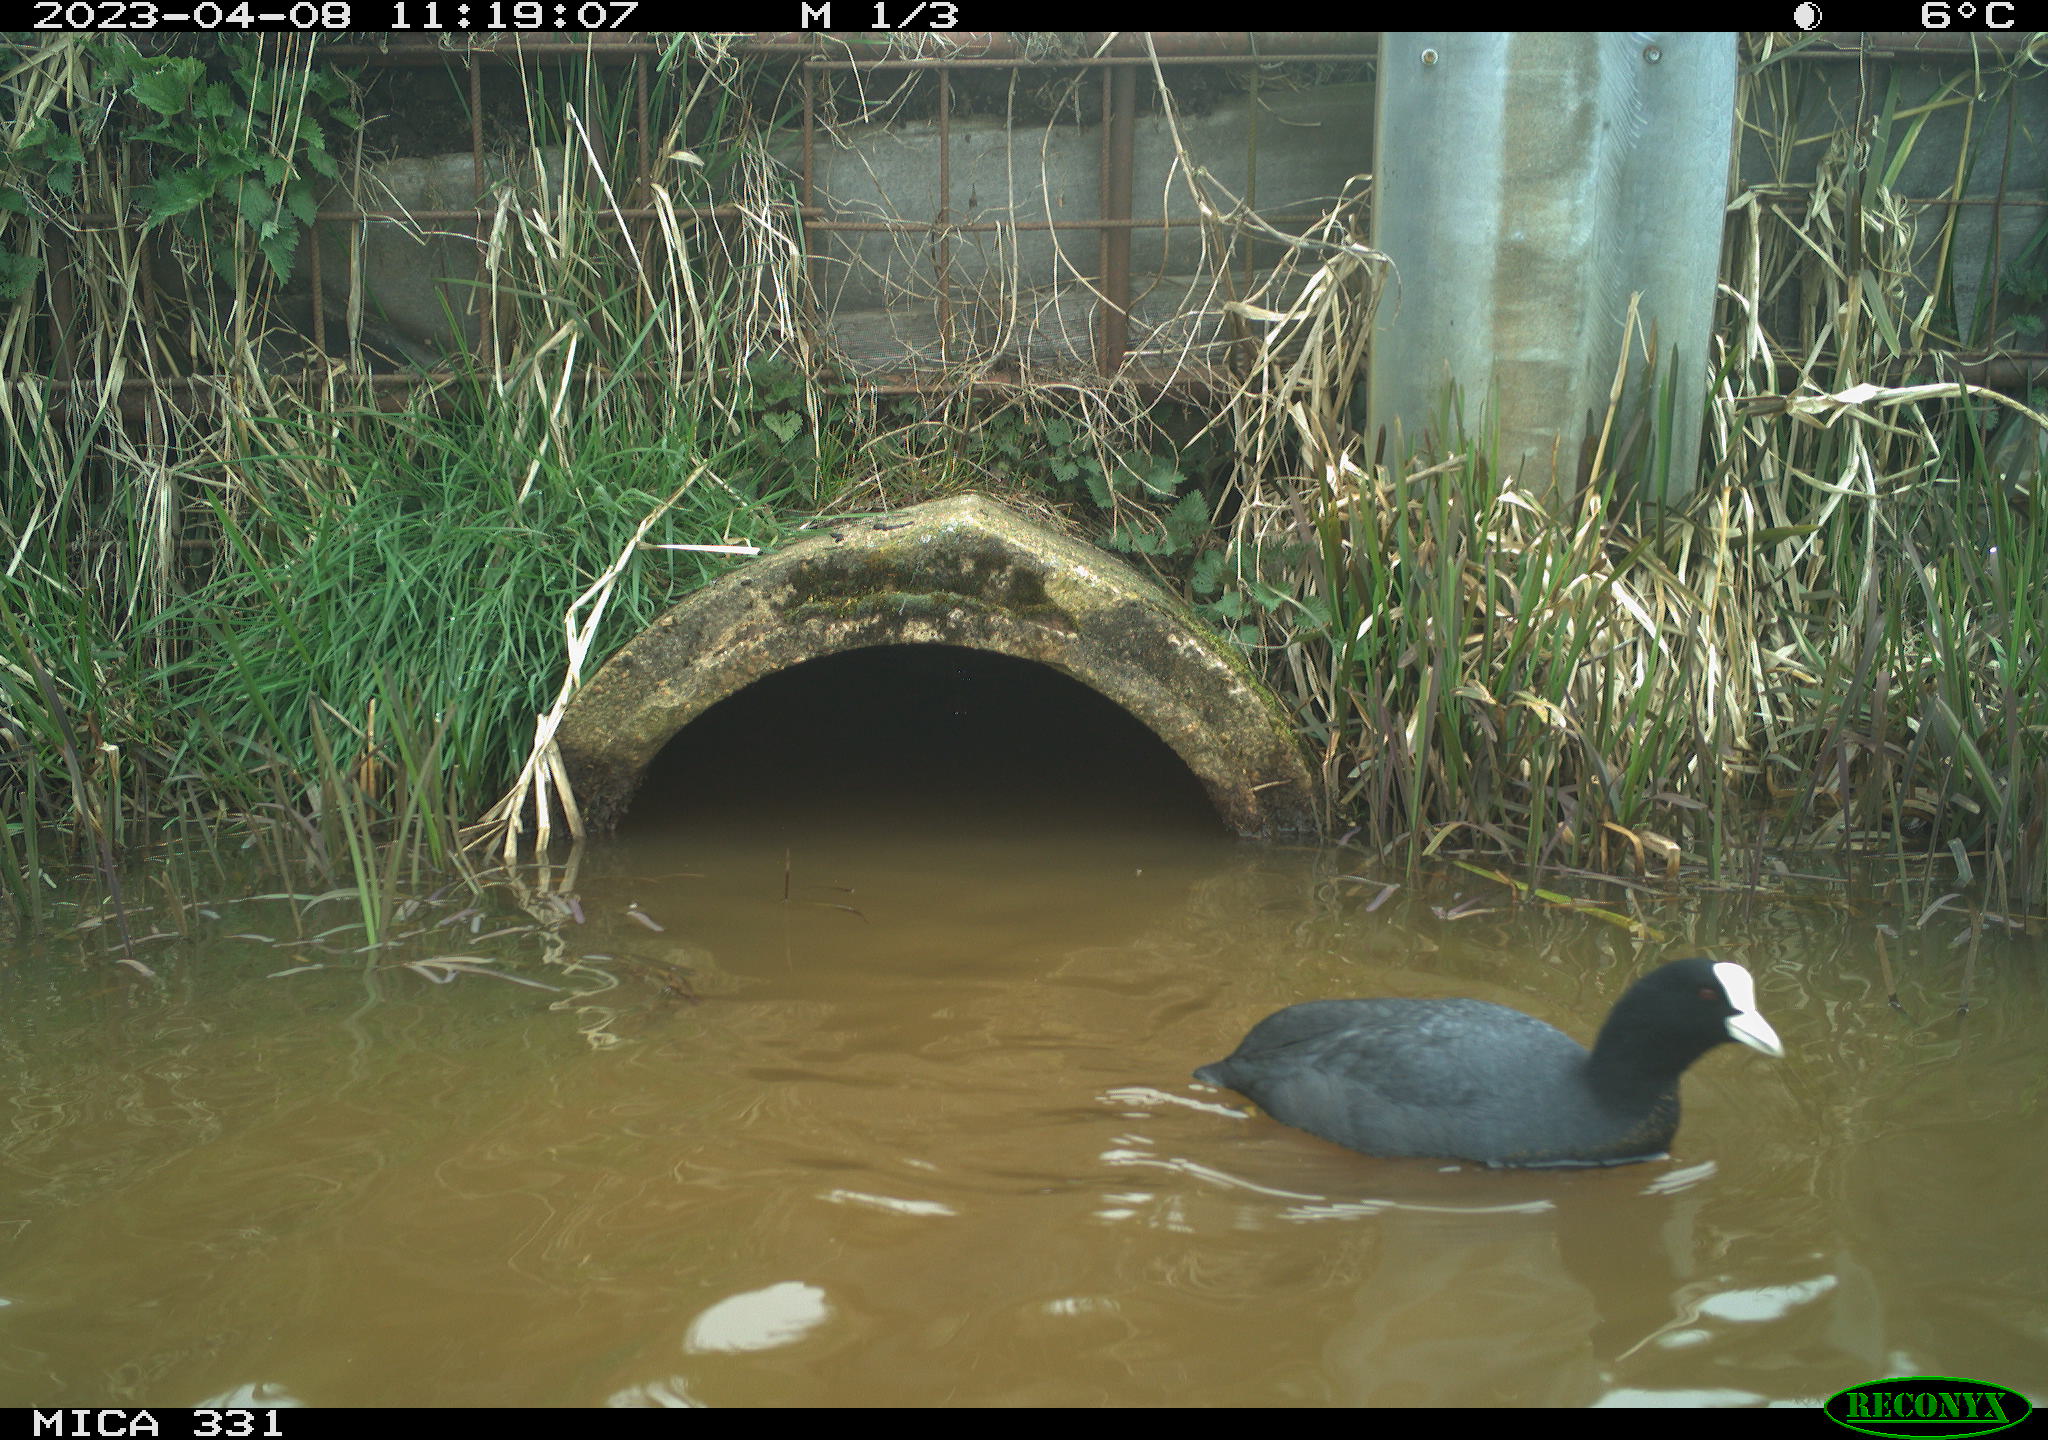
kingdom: Animalia
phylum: Chordata
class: Aves
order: Gruiformes
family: Rallidae
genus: Fulica
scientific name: Fulica atra
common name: Eurasian coot
